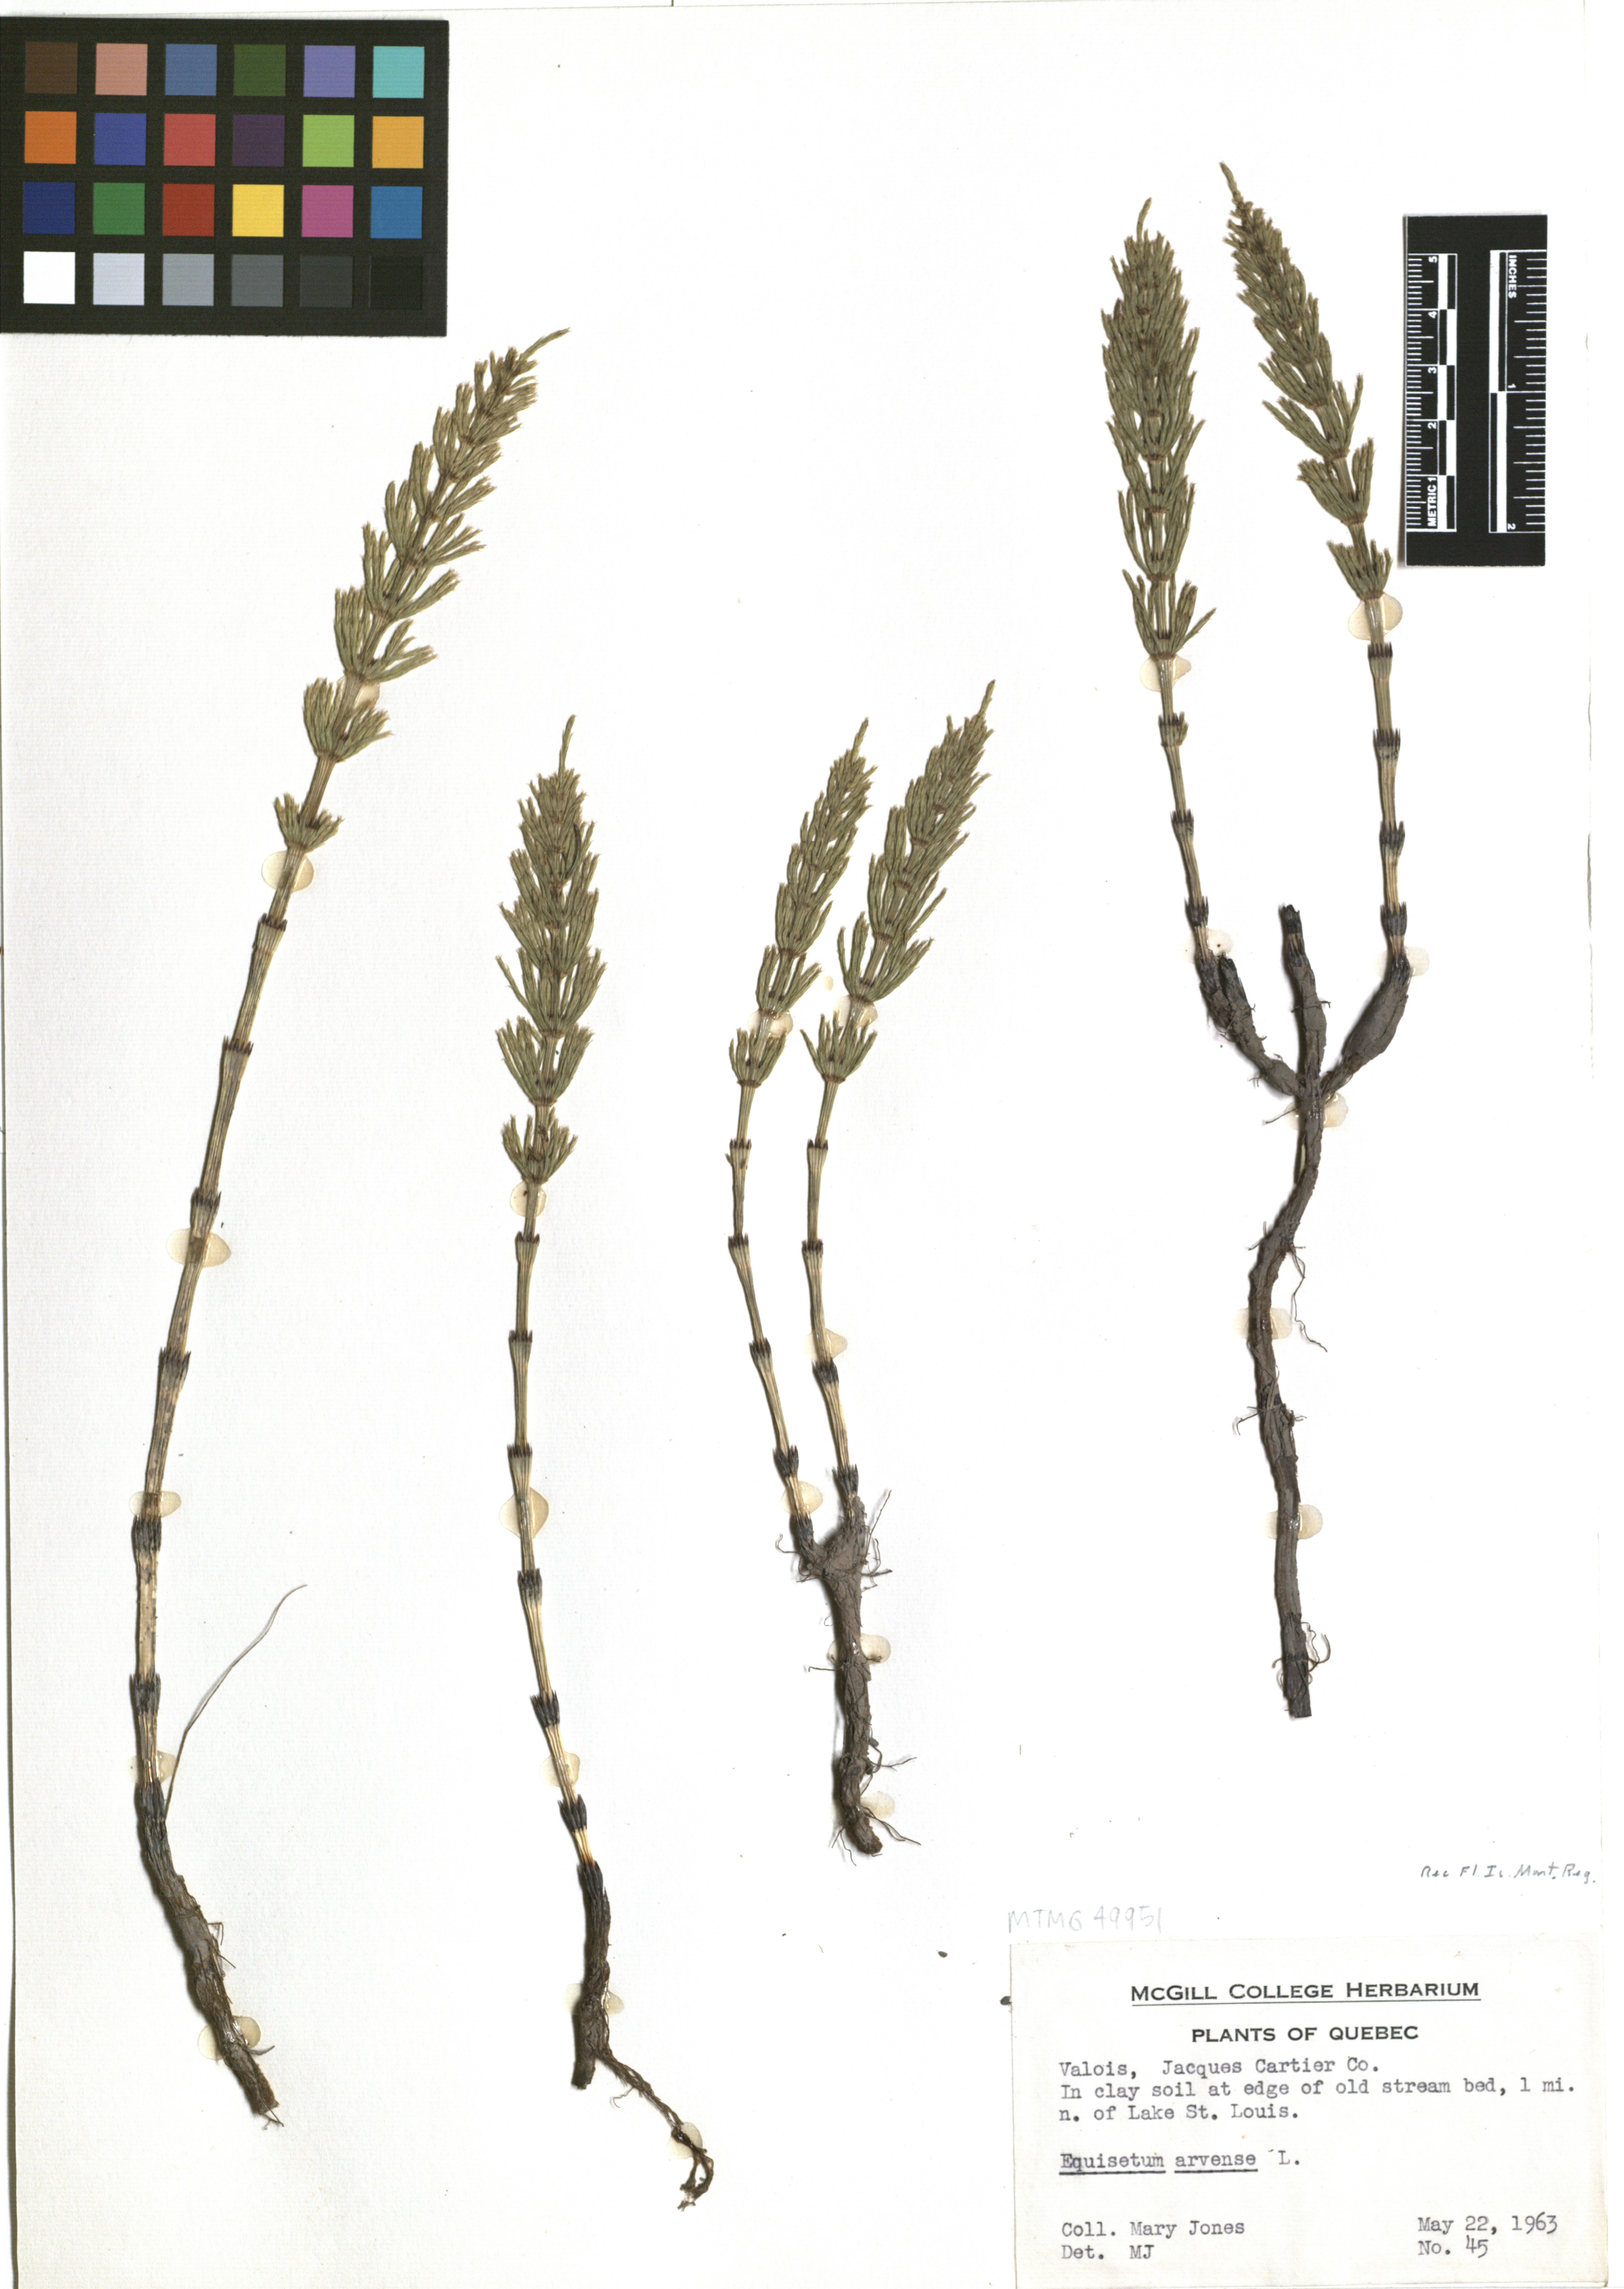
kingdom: Plantae
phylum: Tracheophyta
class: Polypodiopsida
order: Equisetales
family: Equisetaceae
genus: Equisetum
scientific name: Equisetum arvense
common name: Field horsetail
